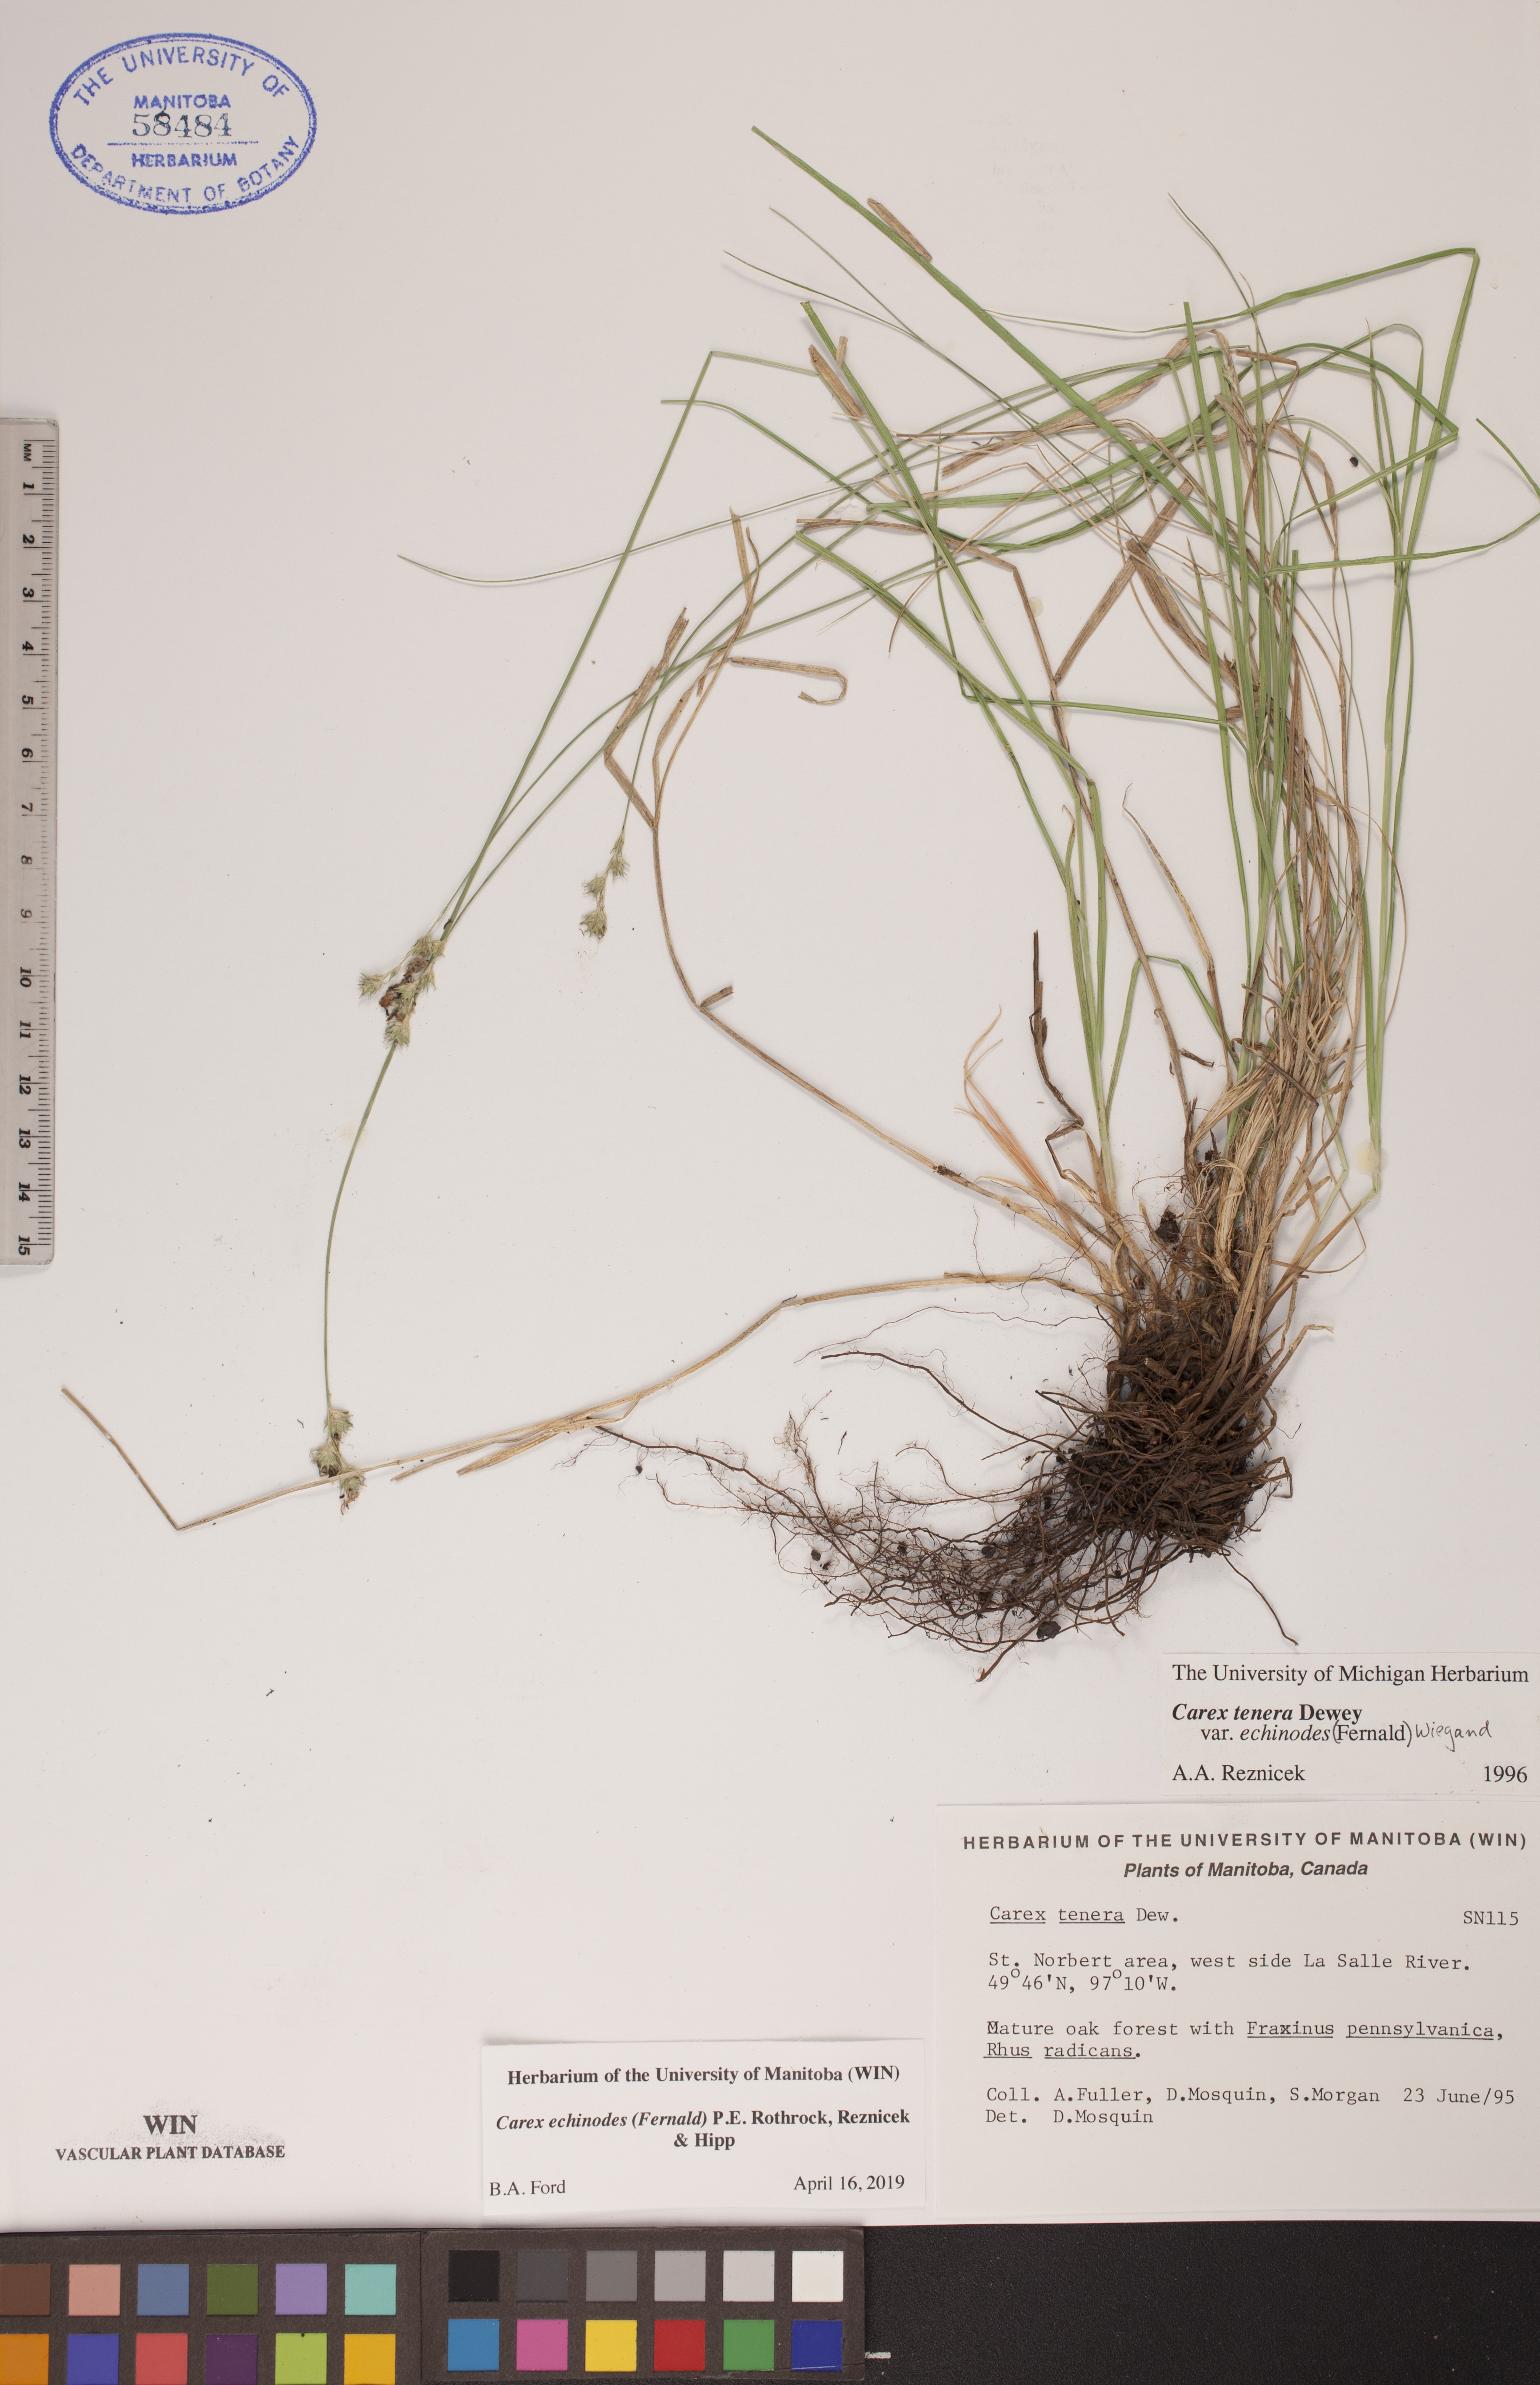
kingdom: Plantae
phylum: Tracheophyta
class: Liliopsida
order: Poales
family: Cyperaceae
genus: Carex
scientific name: Carex echinodes
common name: Marsh straw sedge
